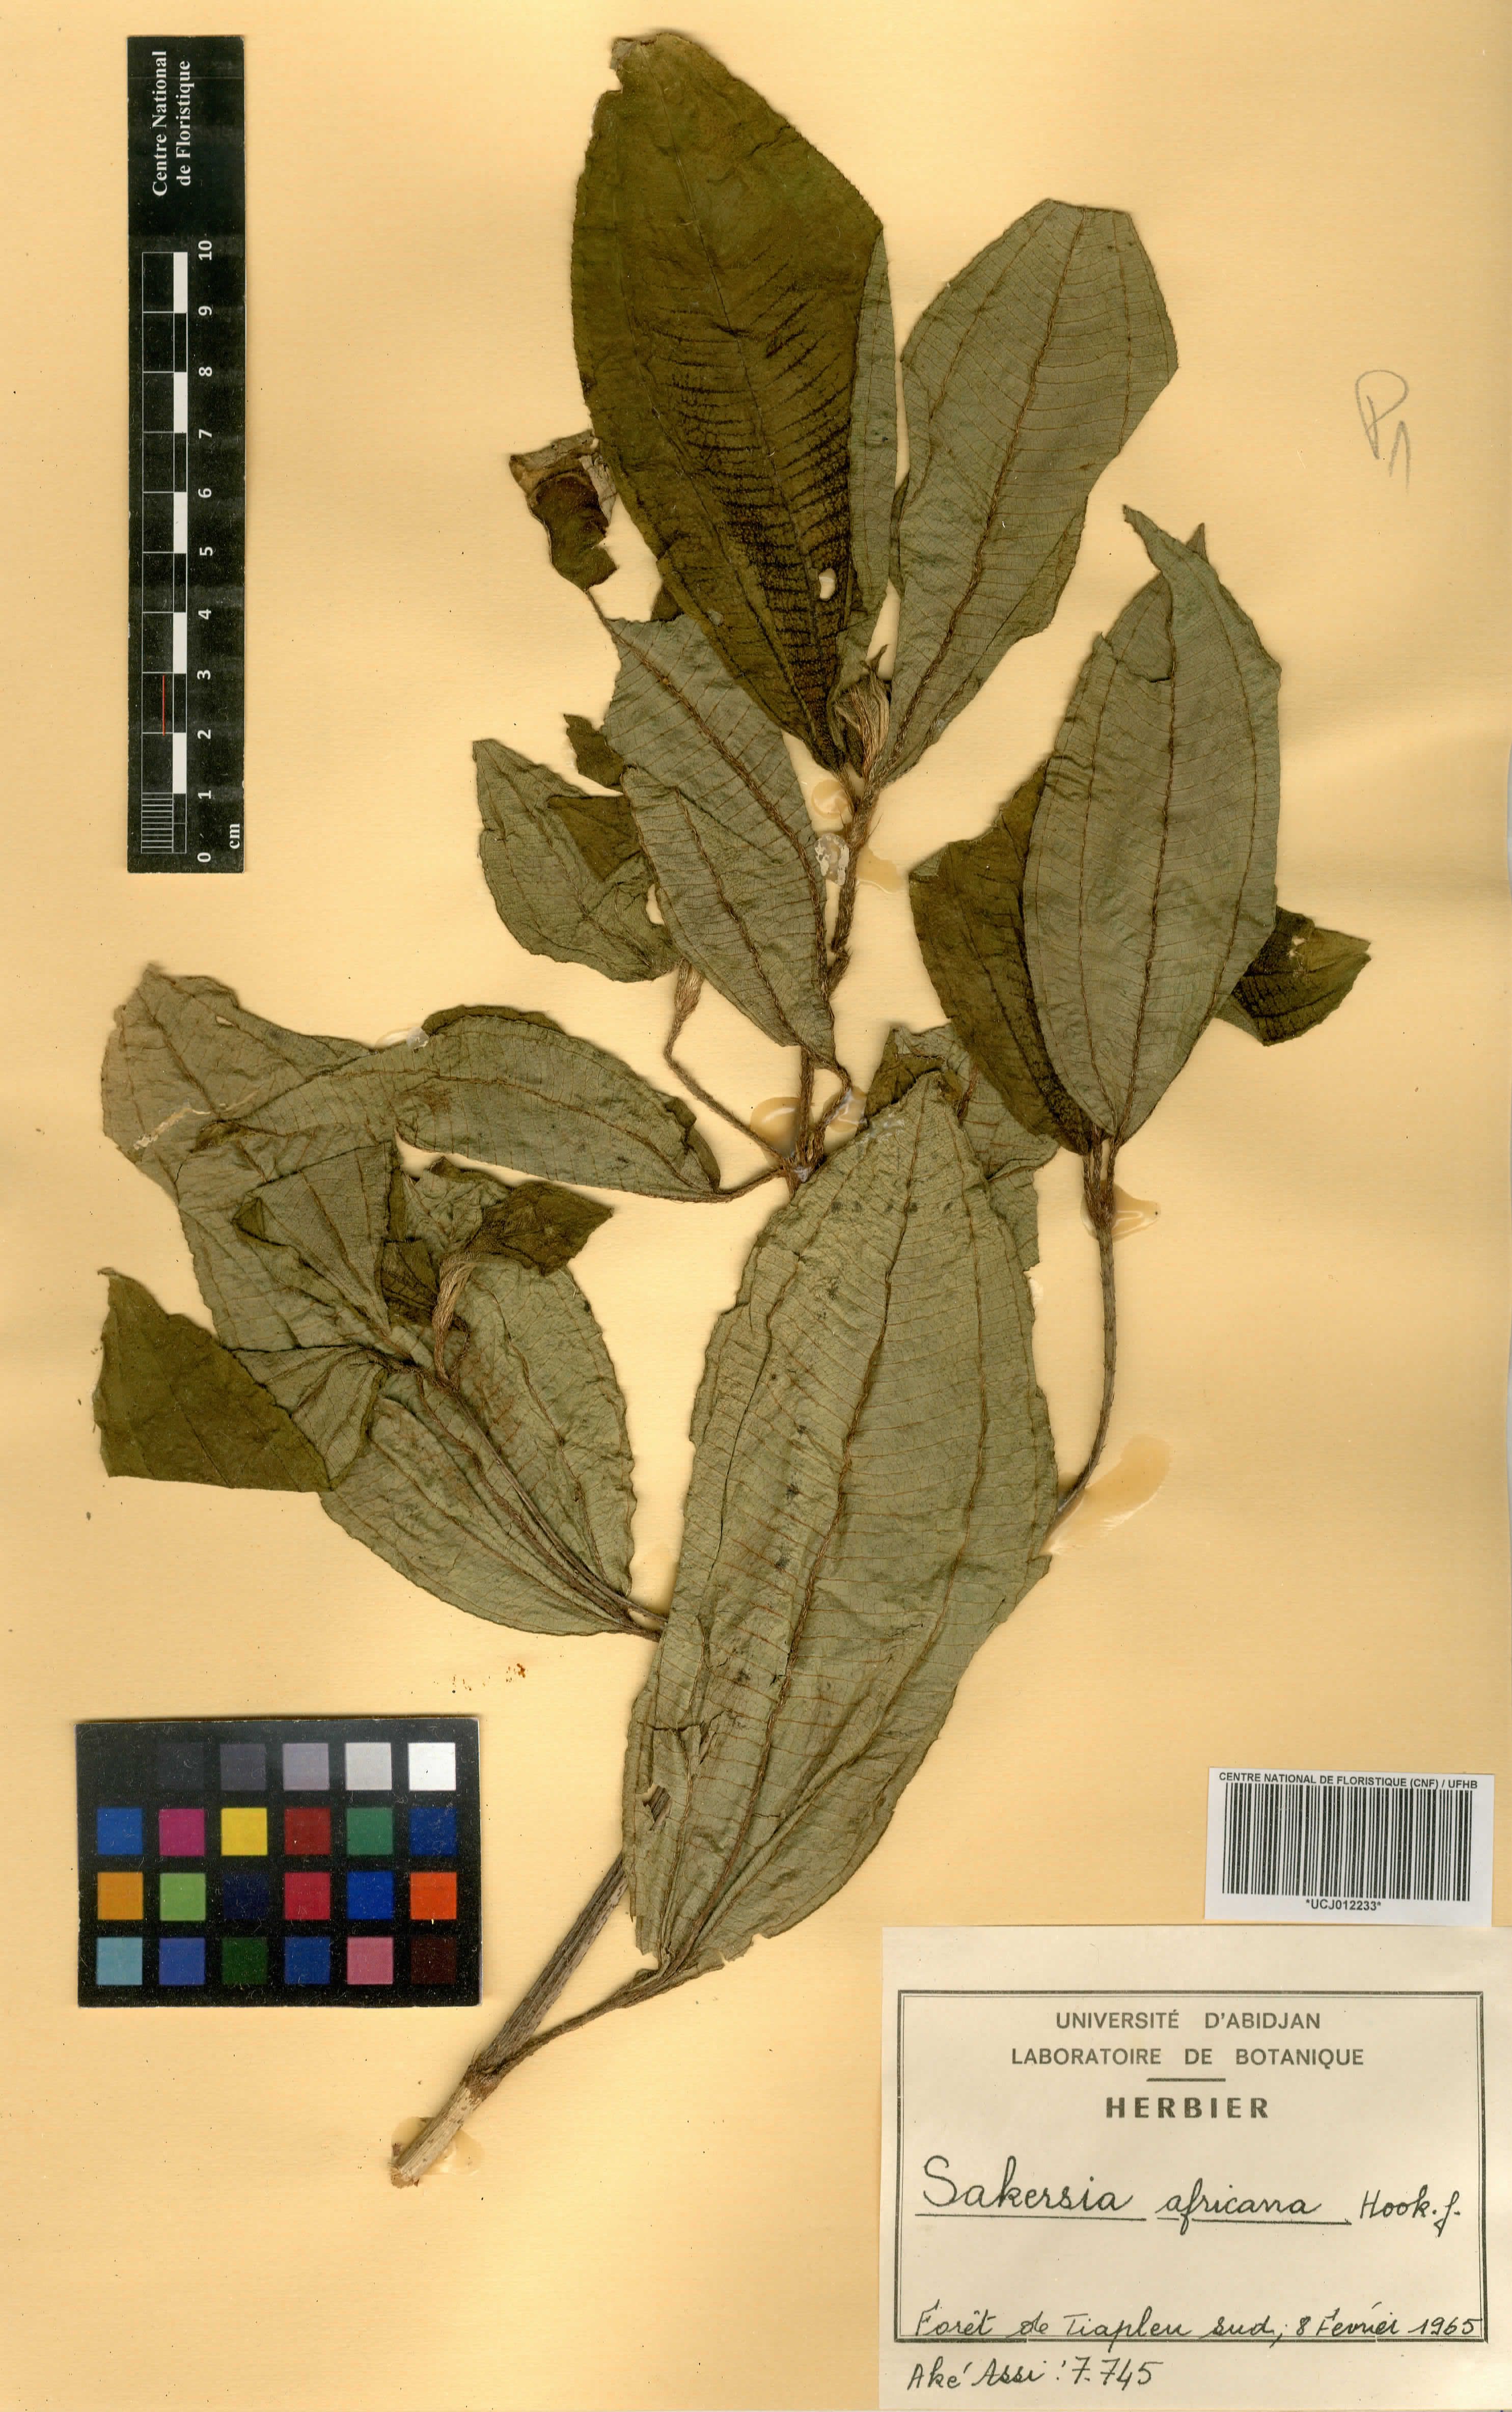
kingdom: Plantae
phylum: Tracheophyta
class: Magnoliopsida
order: Myrtales
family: Melastomataceae
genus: Dichaetanthera
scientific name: Dichaetanthera africana
